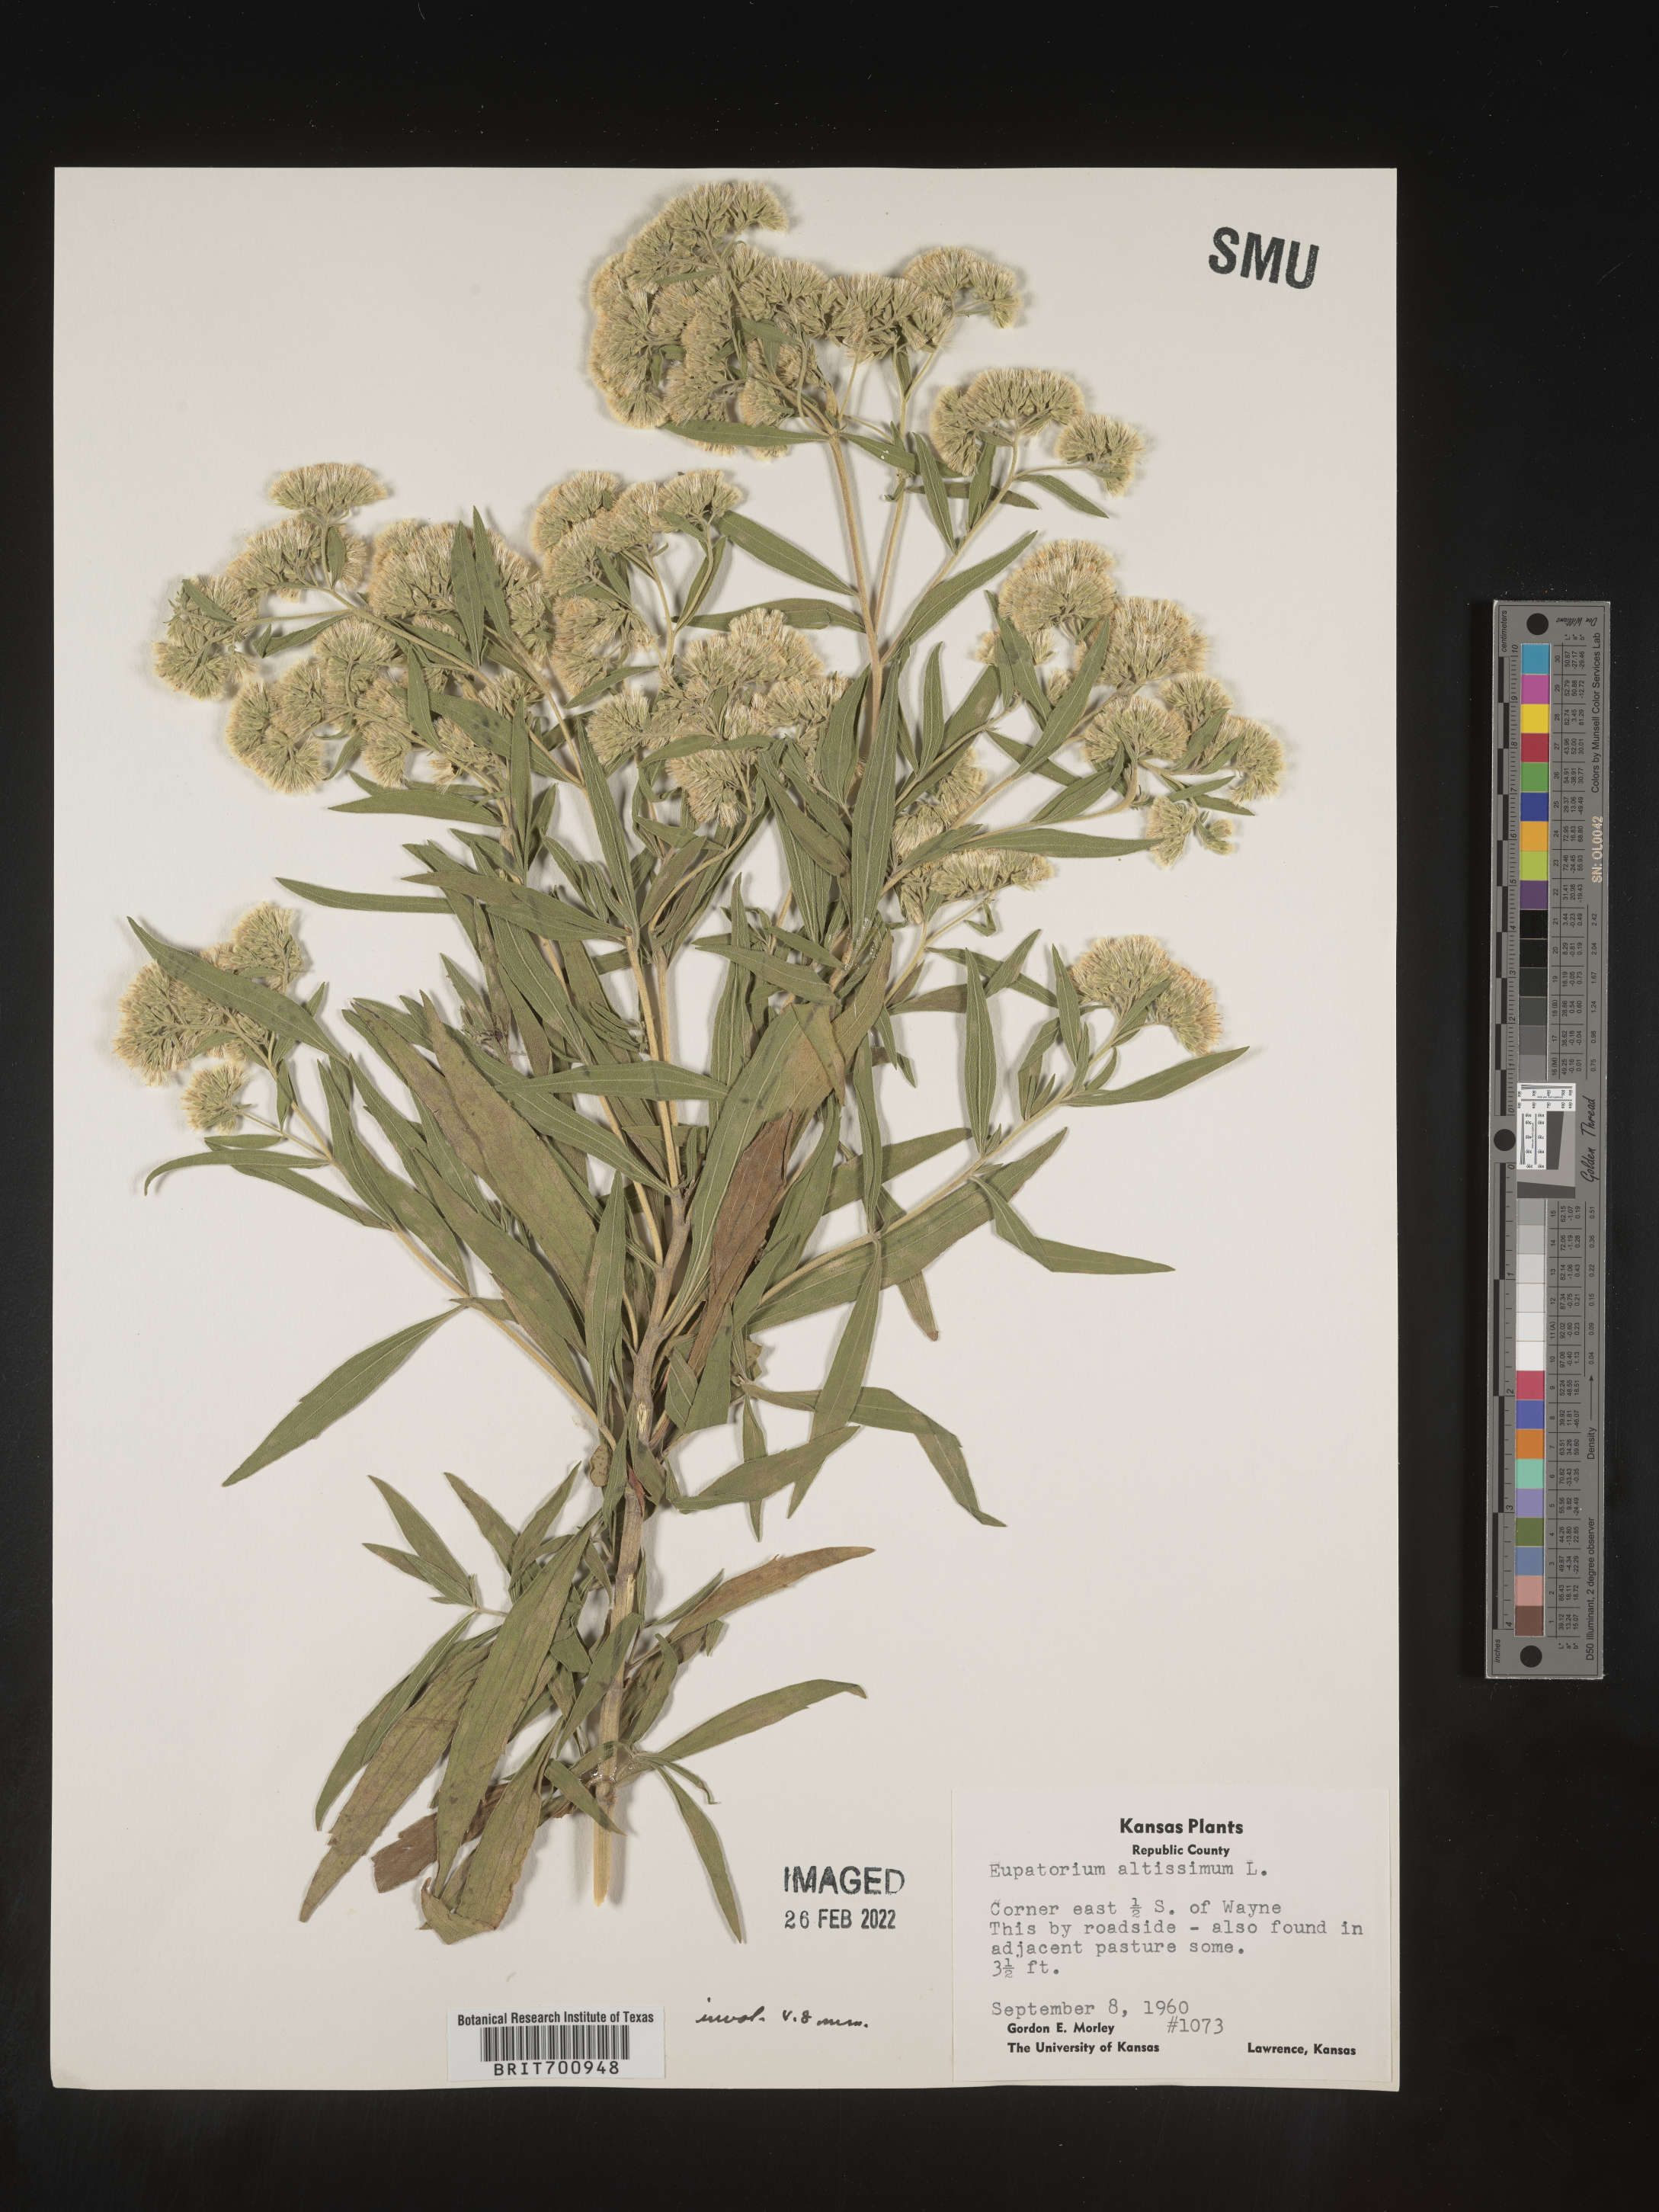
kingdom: Plantae
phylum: Tracheophyta
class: Magnoliopsida
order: Asterales
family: Asteraceae
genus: Eupatorium
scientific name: Eupatorium altissimum
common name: Tall thoroughwort
